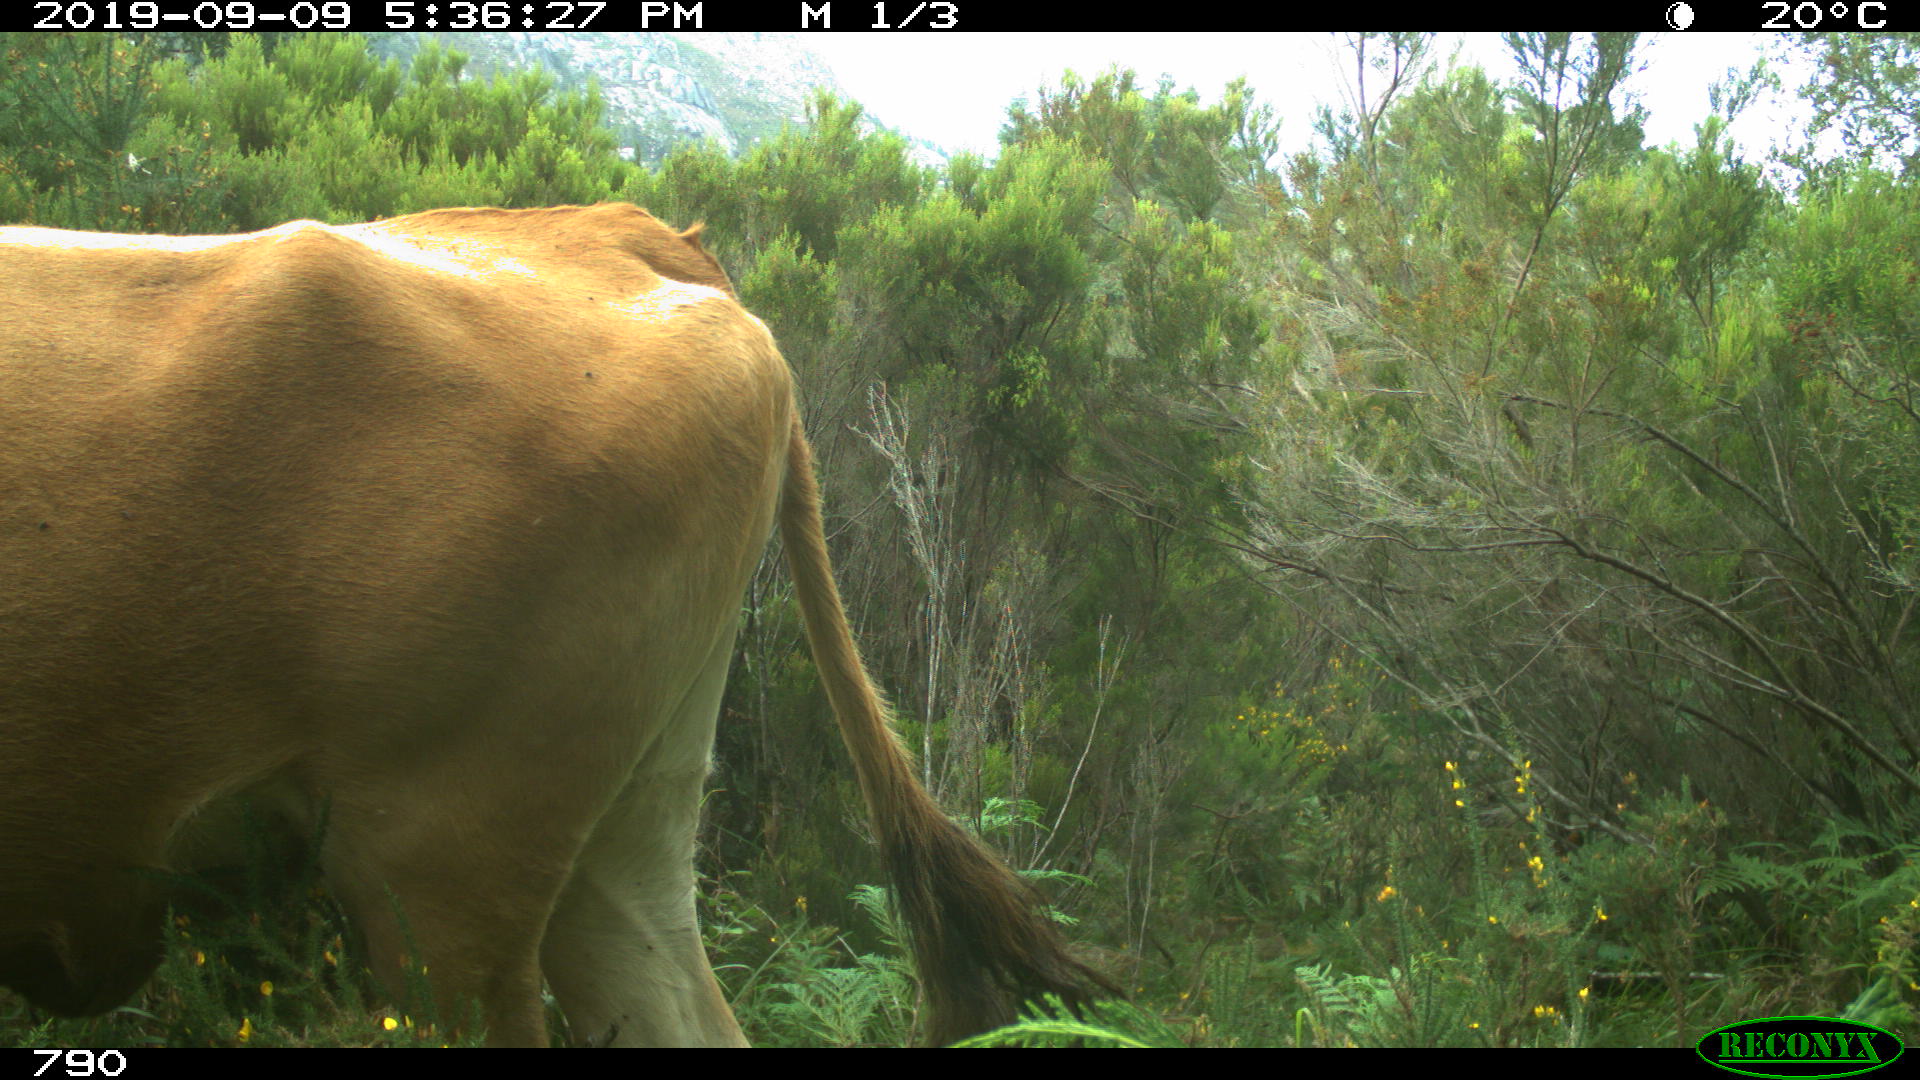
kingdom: Animalia
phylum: Chordata
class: Mammalia
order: Artiodactyla
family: Bovidae
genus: Bos
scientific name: Bos taurus
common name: Domesticated cattle
